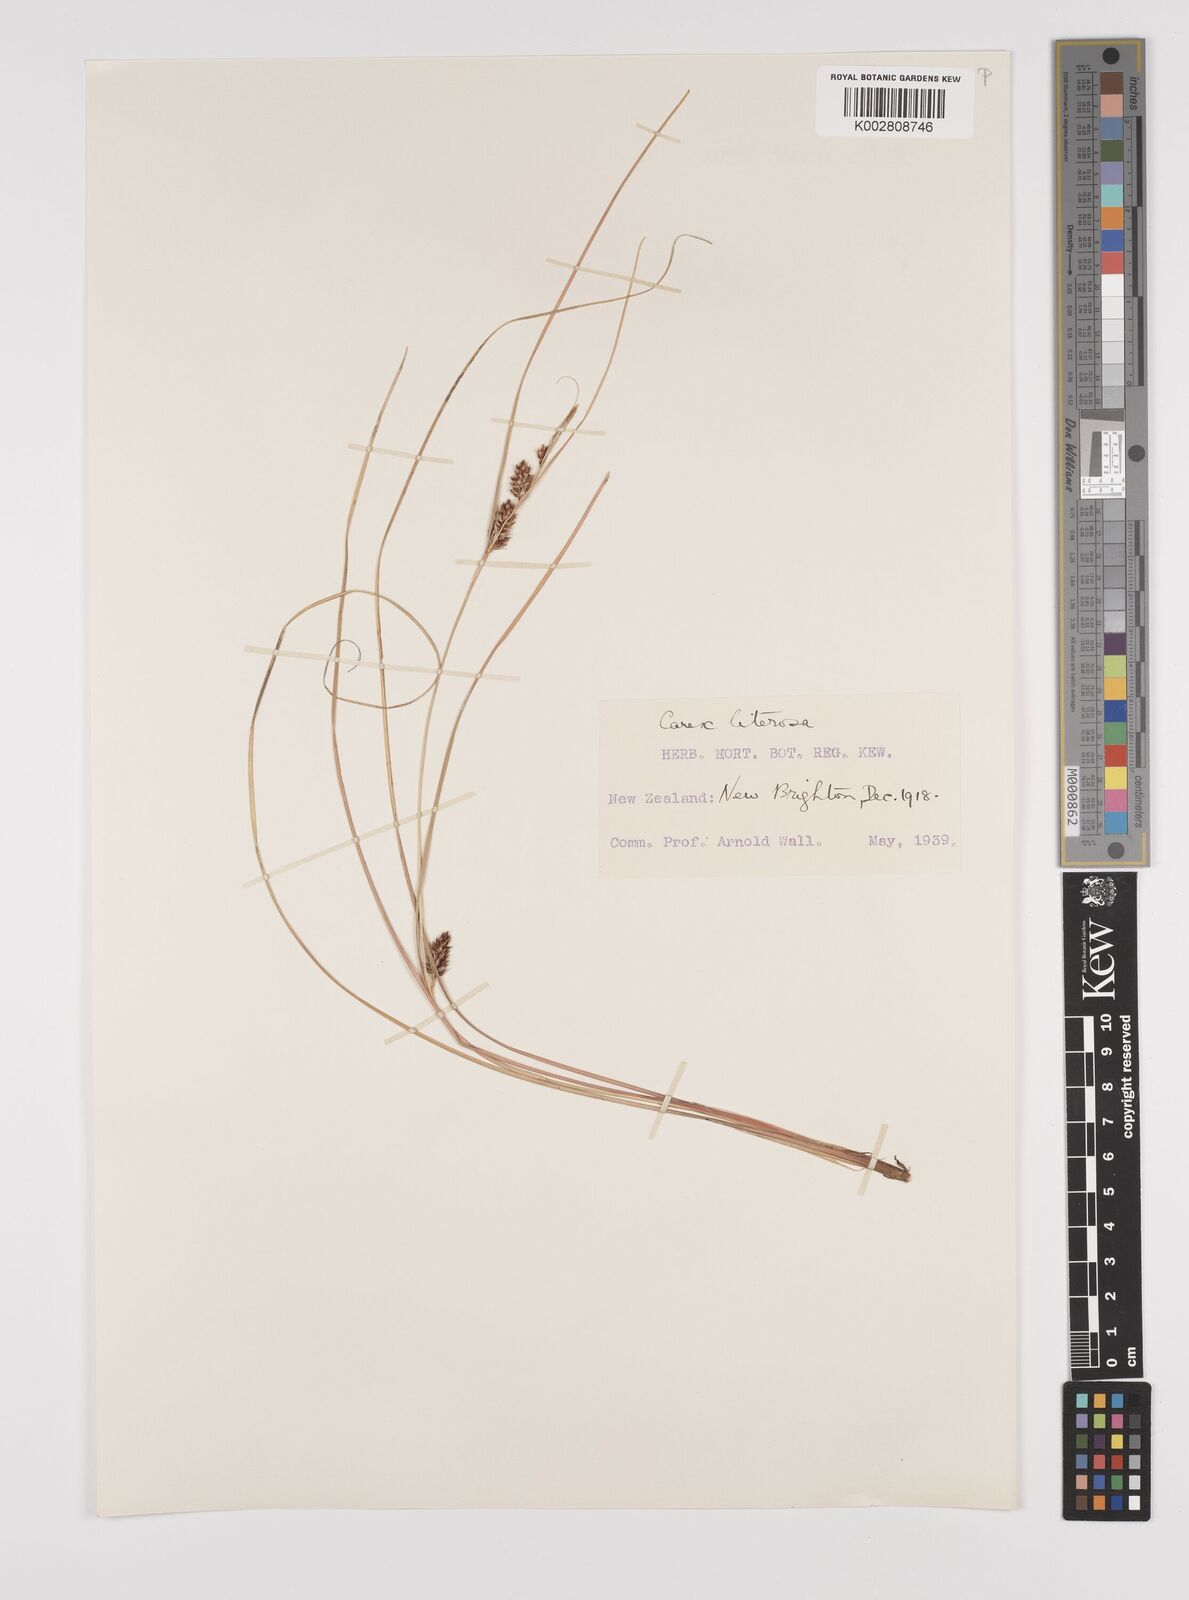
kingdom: Plantae
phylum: Tracheophyta
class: Liliopsida
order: Poales
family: Cyperaceae
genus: Carex
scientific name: Carex litorosa
